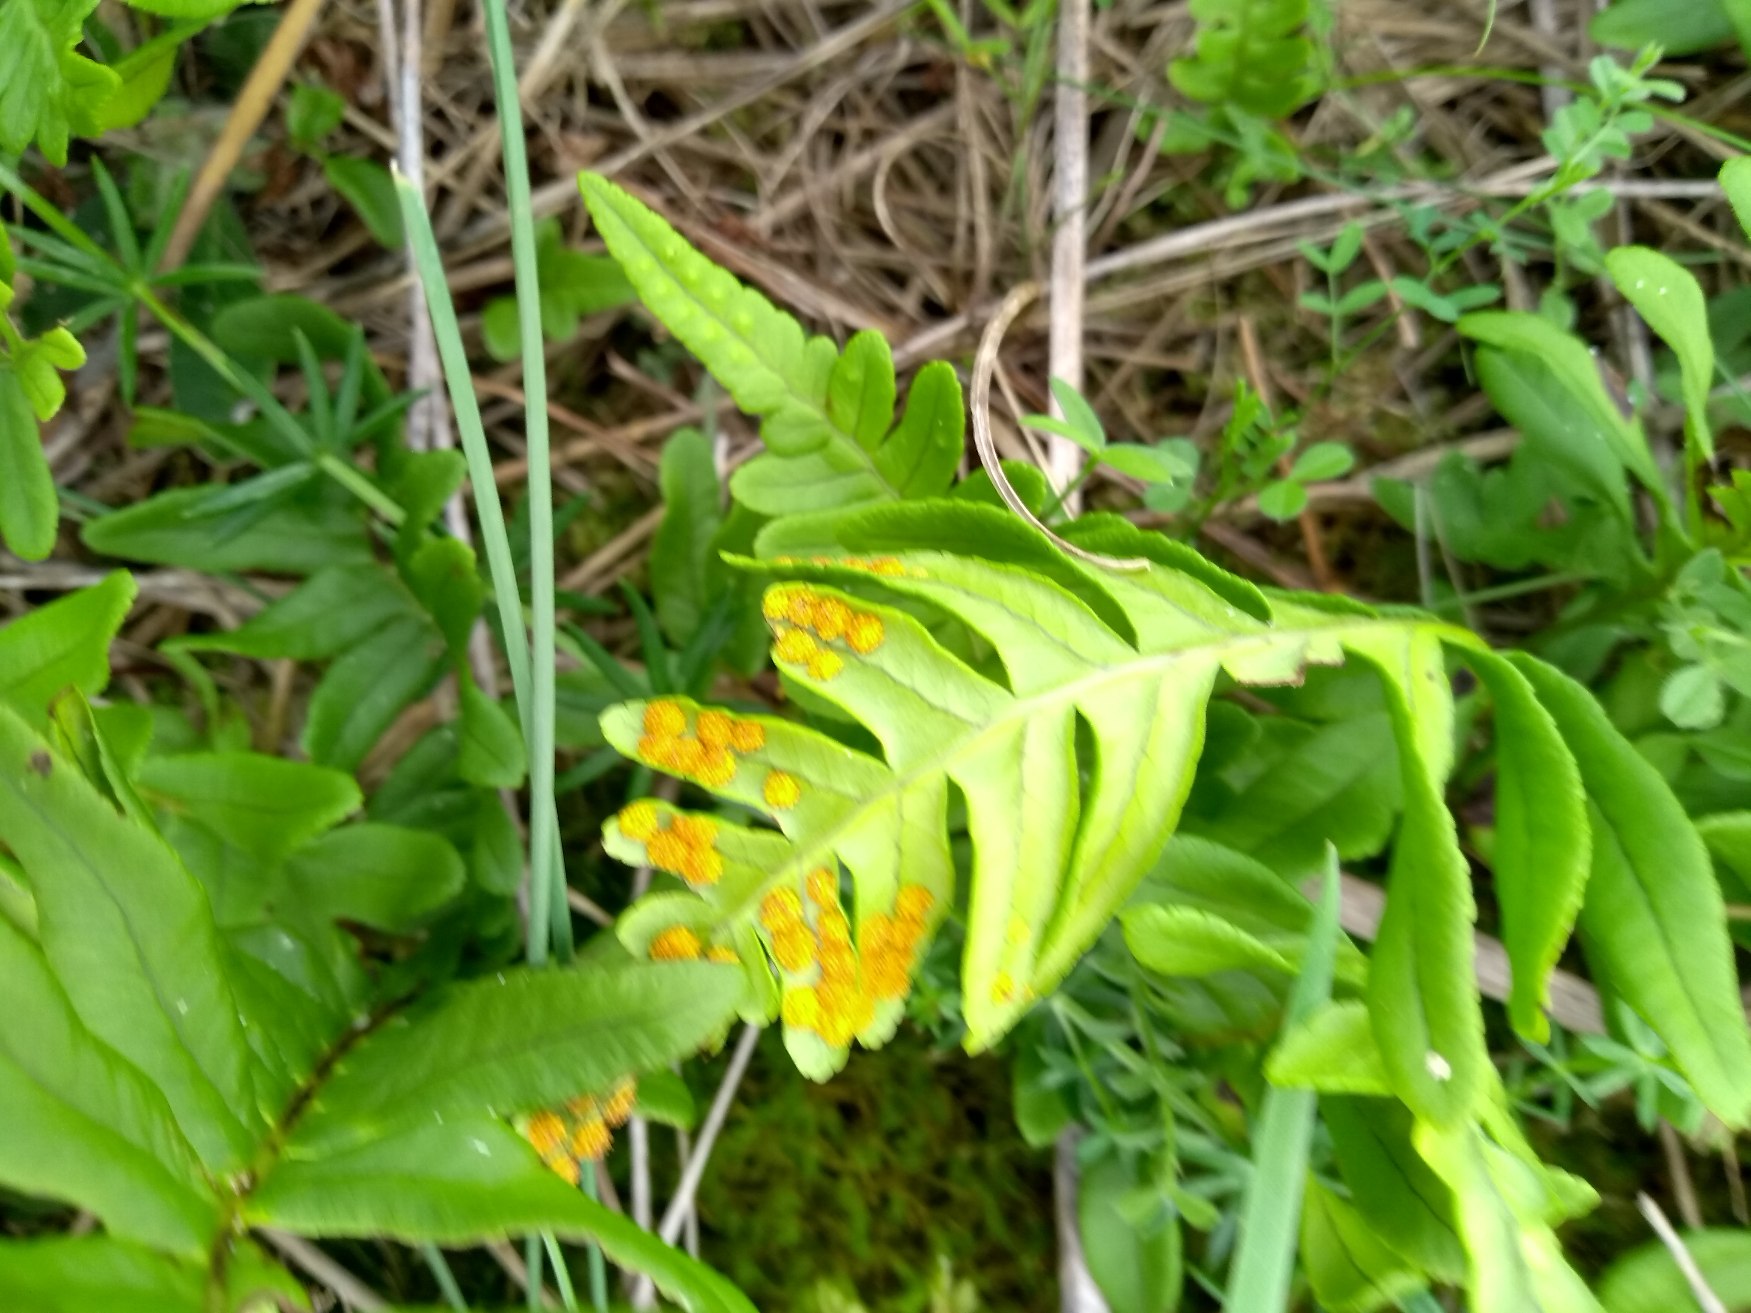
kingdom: Plantae
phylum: Tracheophyta
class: Polypodiopsida
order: Polypodiales
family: Polypodiaceae
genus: Polypodium
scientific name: Polypodium vulgare
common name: Almindelig engelsød
